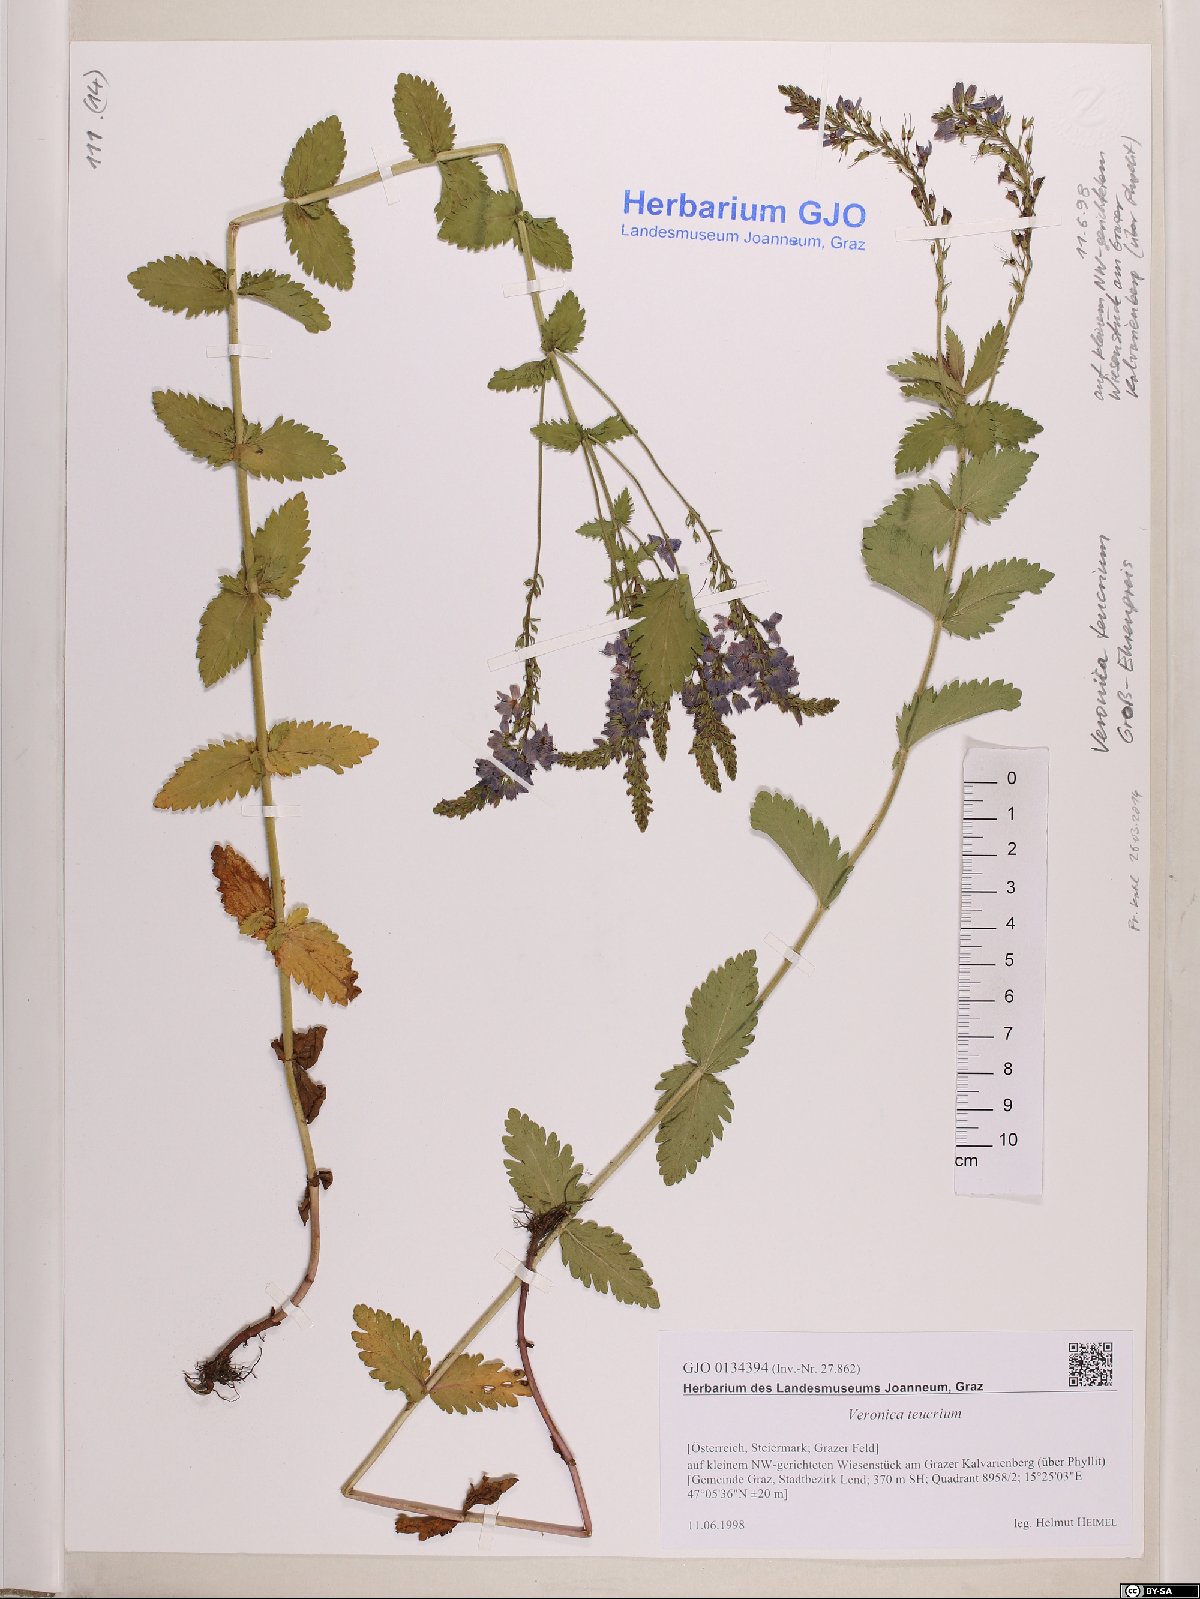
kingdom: Plantae
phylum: Tracheophyta
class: Magnoliopsida
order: Lamiales
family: Plantaginaceae
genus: Veronica
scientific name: Veronica teucrium
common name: Large speedwell
